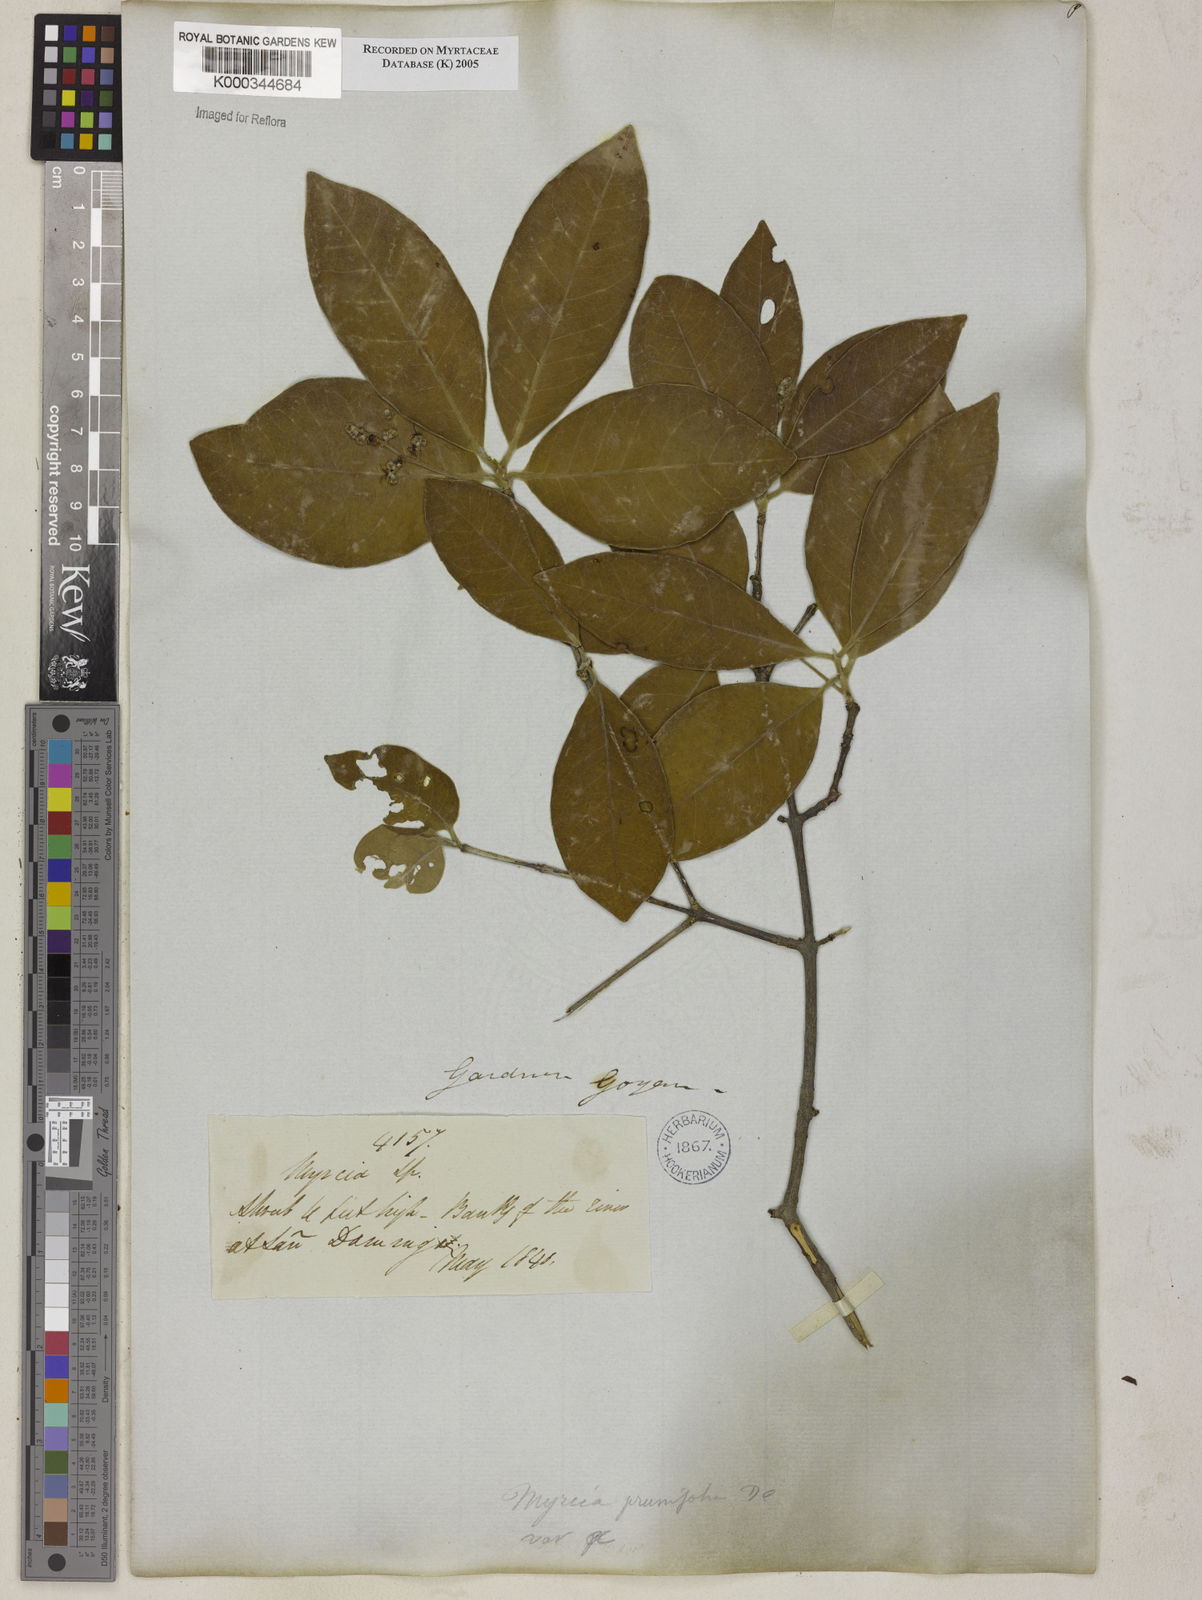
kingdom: Plantae
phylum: Tracheophyta
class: Magnoliopsida
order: Myrtales
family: Myrtaceae
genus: Myrcia
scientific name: Myrcia tomentosa
